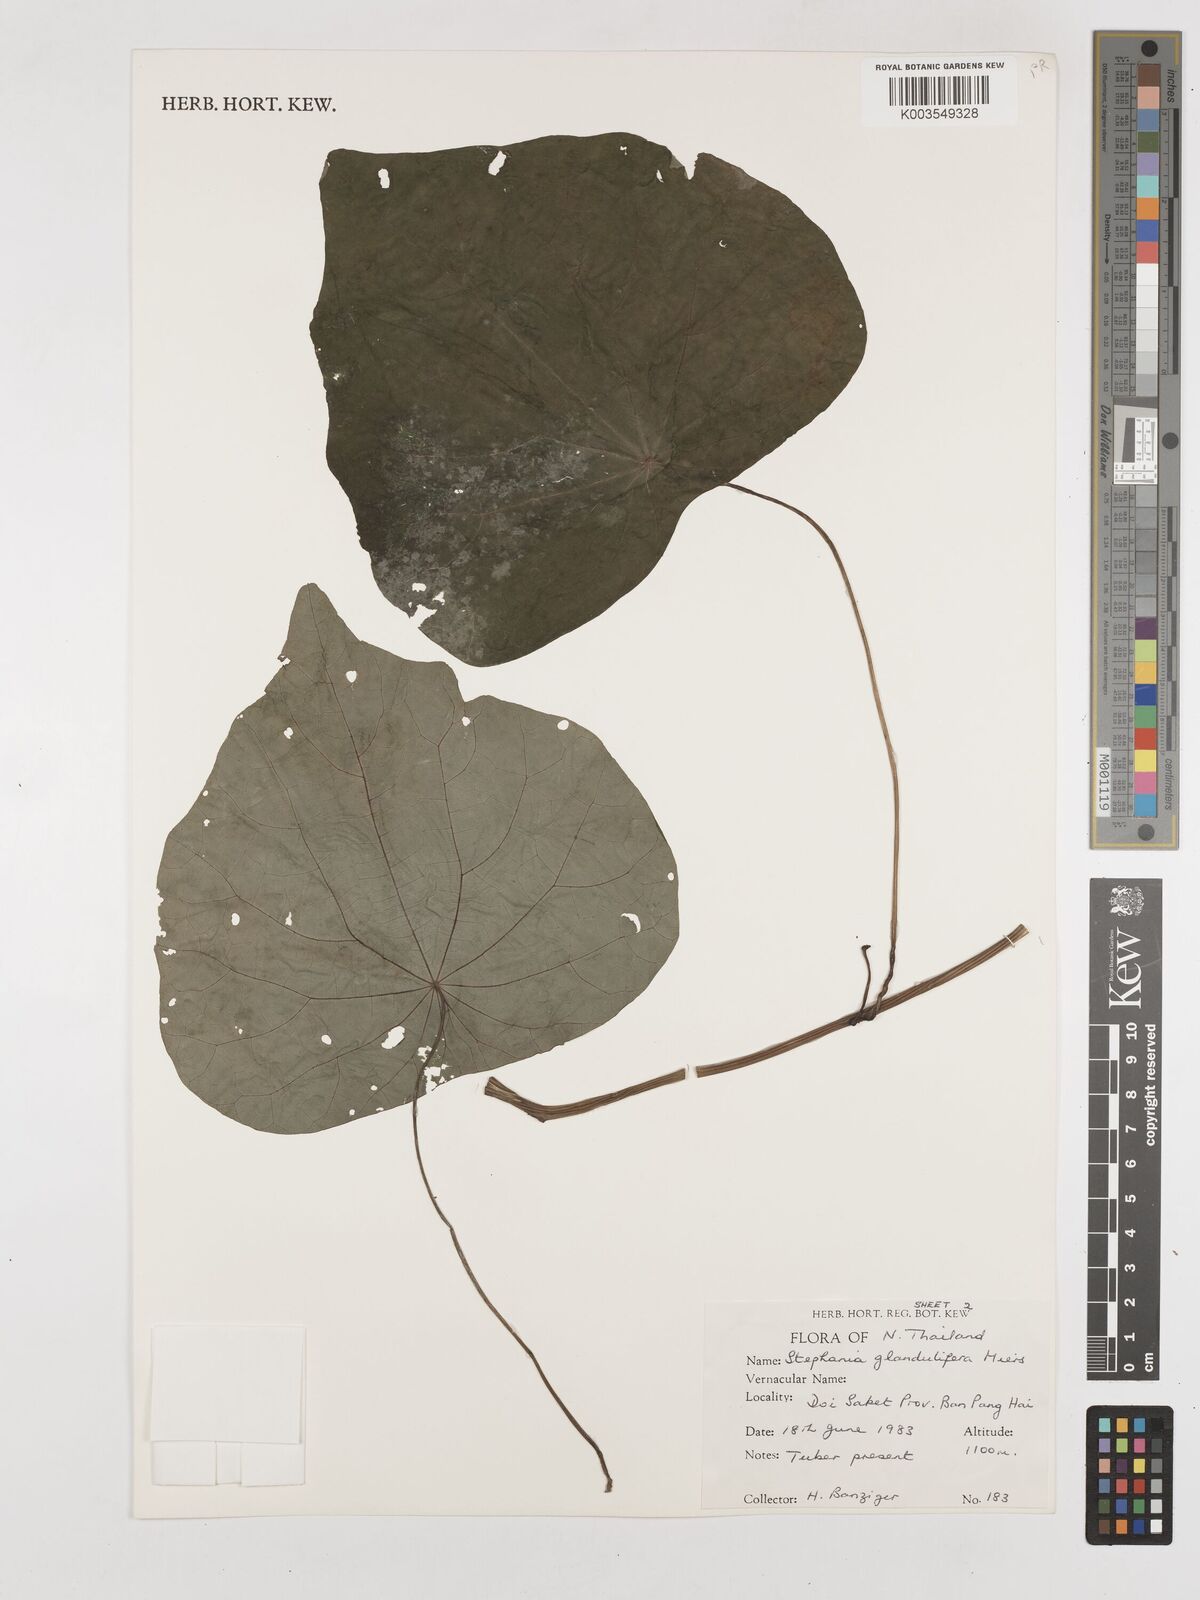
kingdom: Plantae
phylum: Tracheophyta
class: Magnoliopsida
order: Ranunculales
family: Menispermaceae
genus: Stephania
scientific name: Stephania glandulifera
